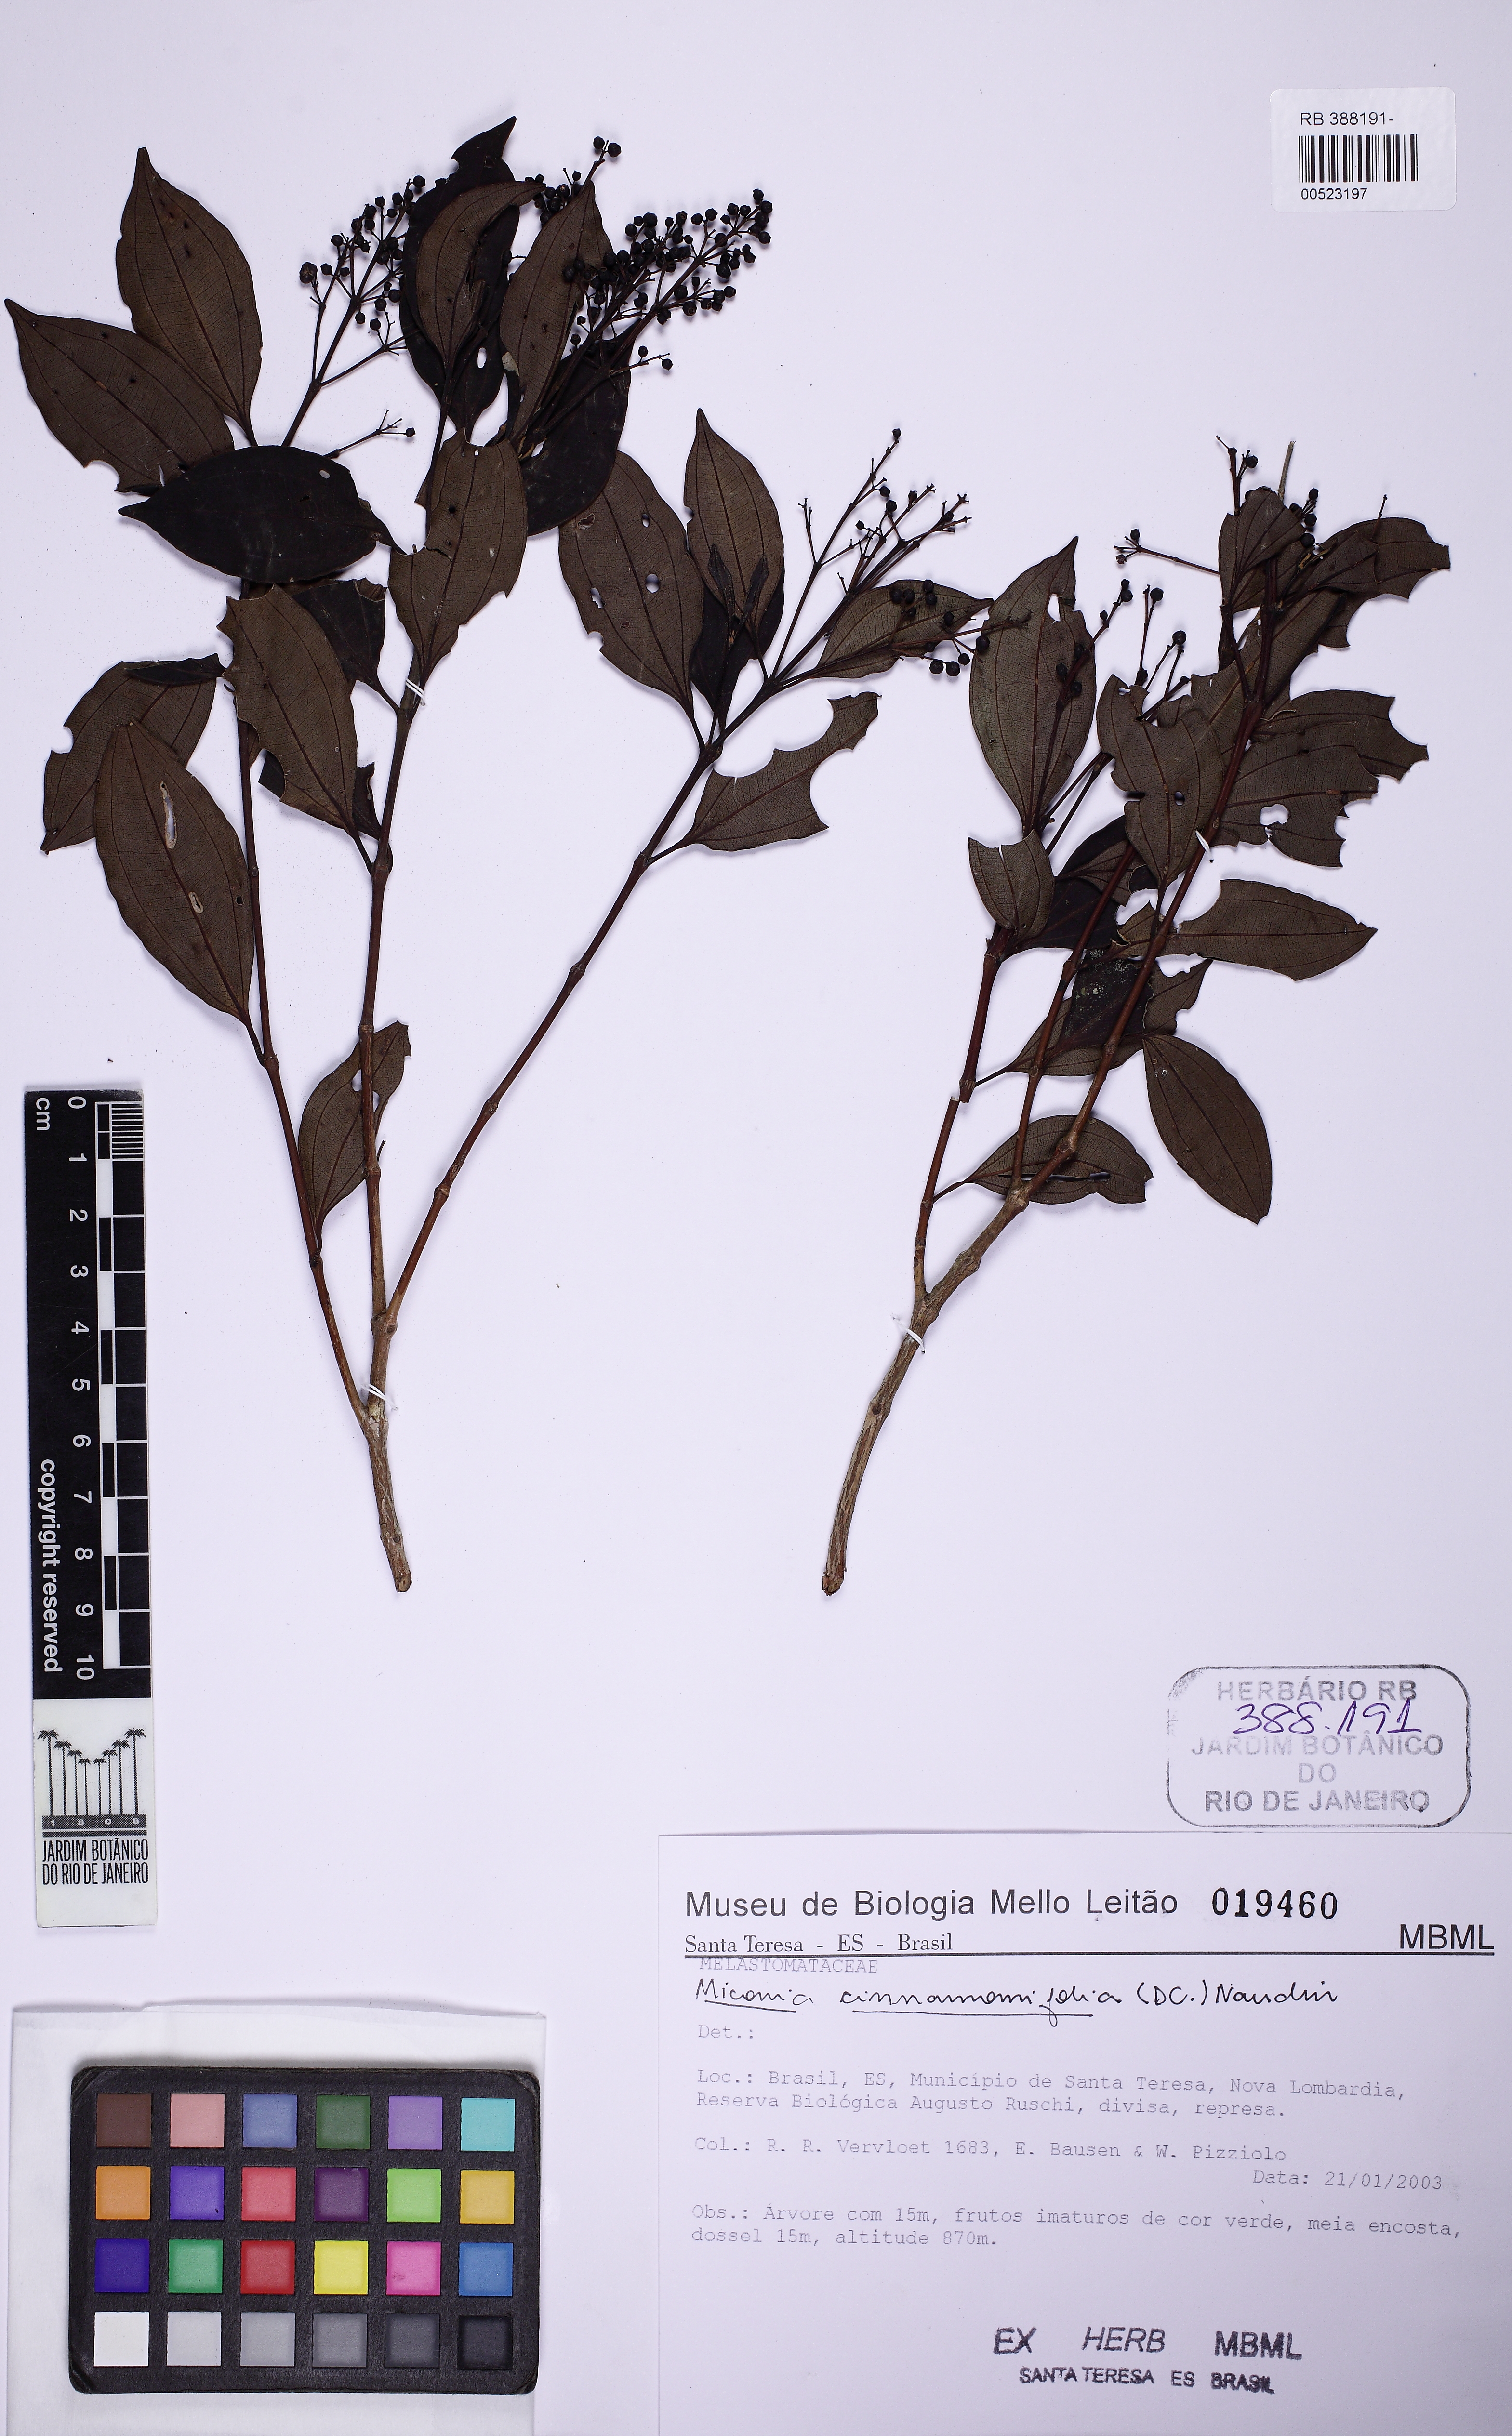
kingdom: Plantae
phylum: Tracheophyta
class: Magnoliopsida
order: Myrtales
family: Melastomataceae
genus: Miconia
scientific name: Miconia cinnamomifolia
